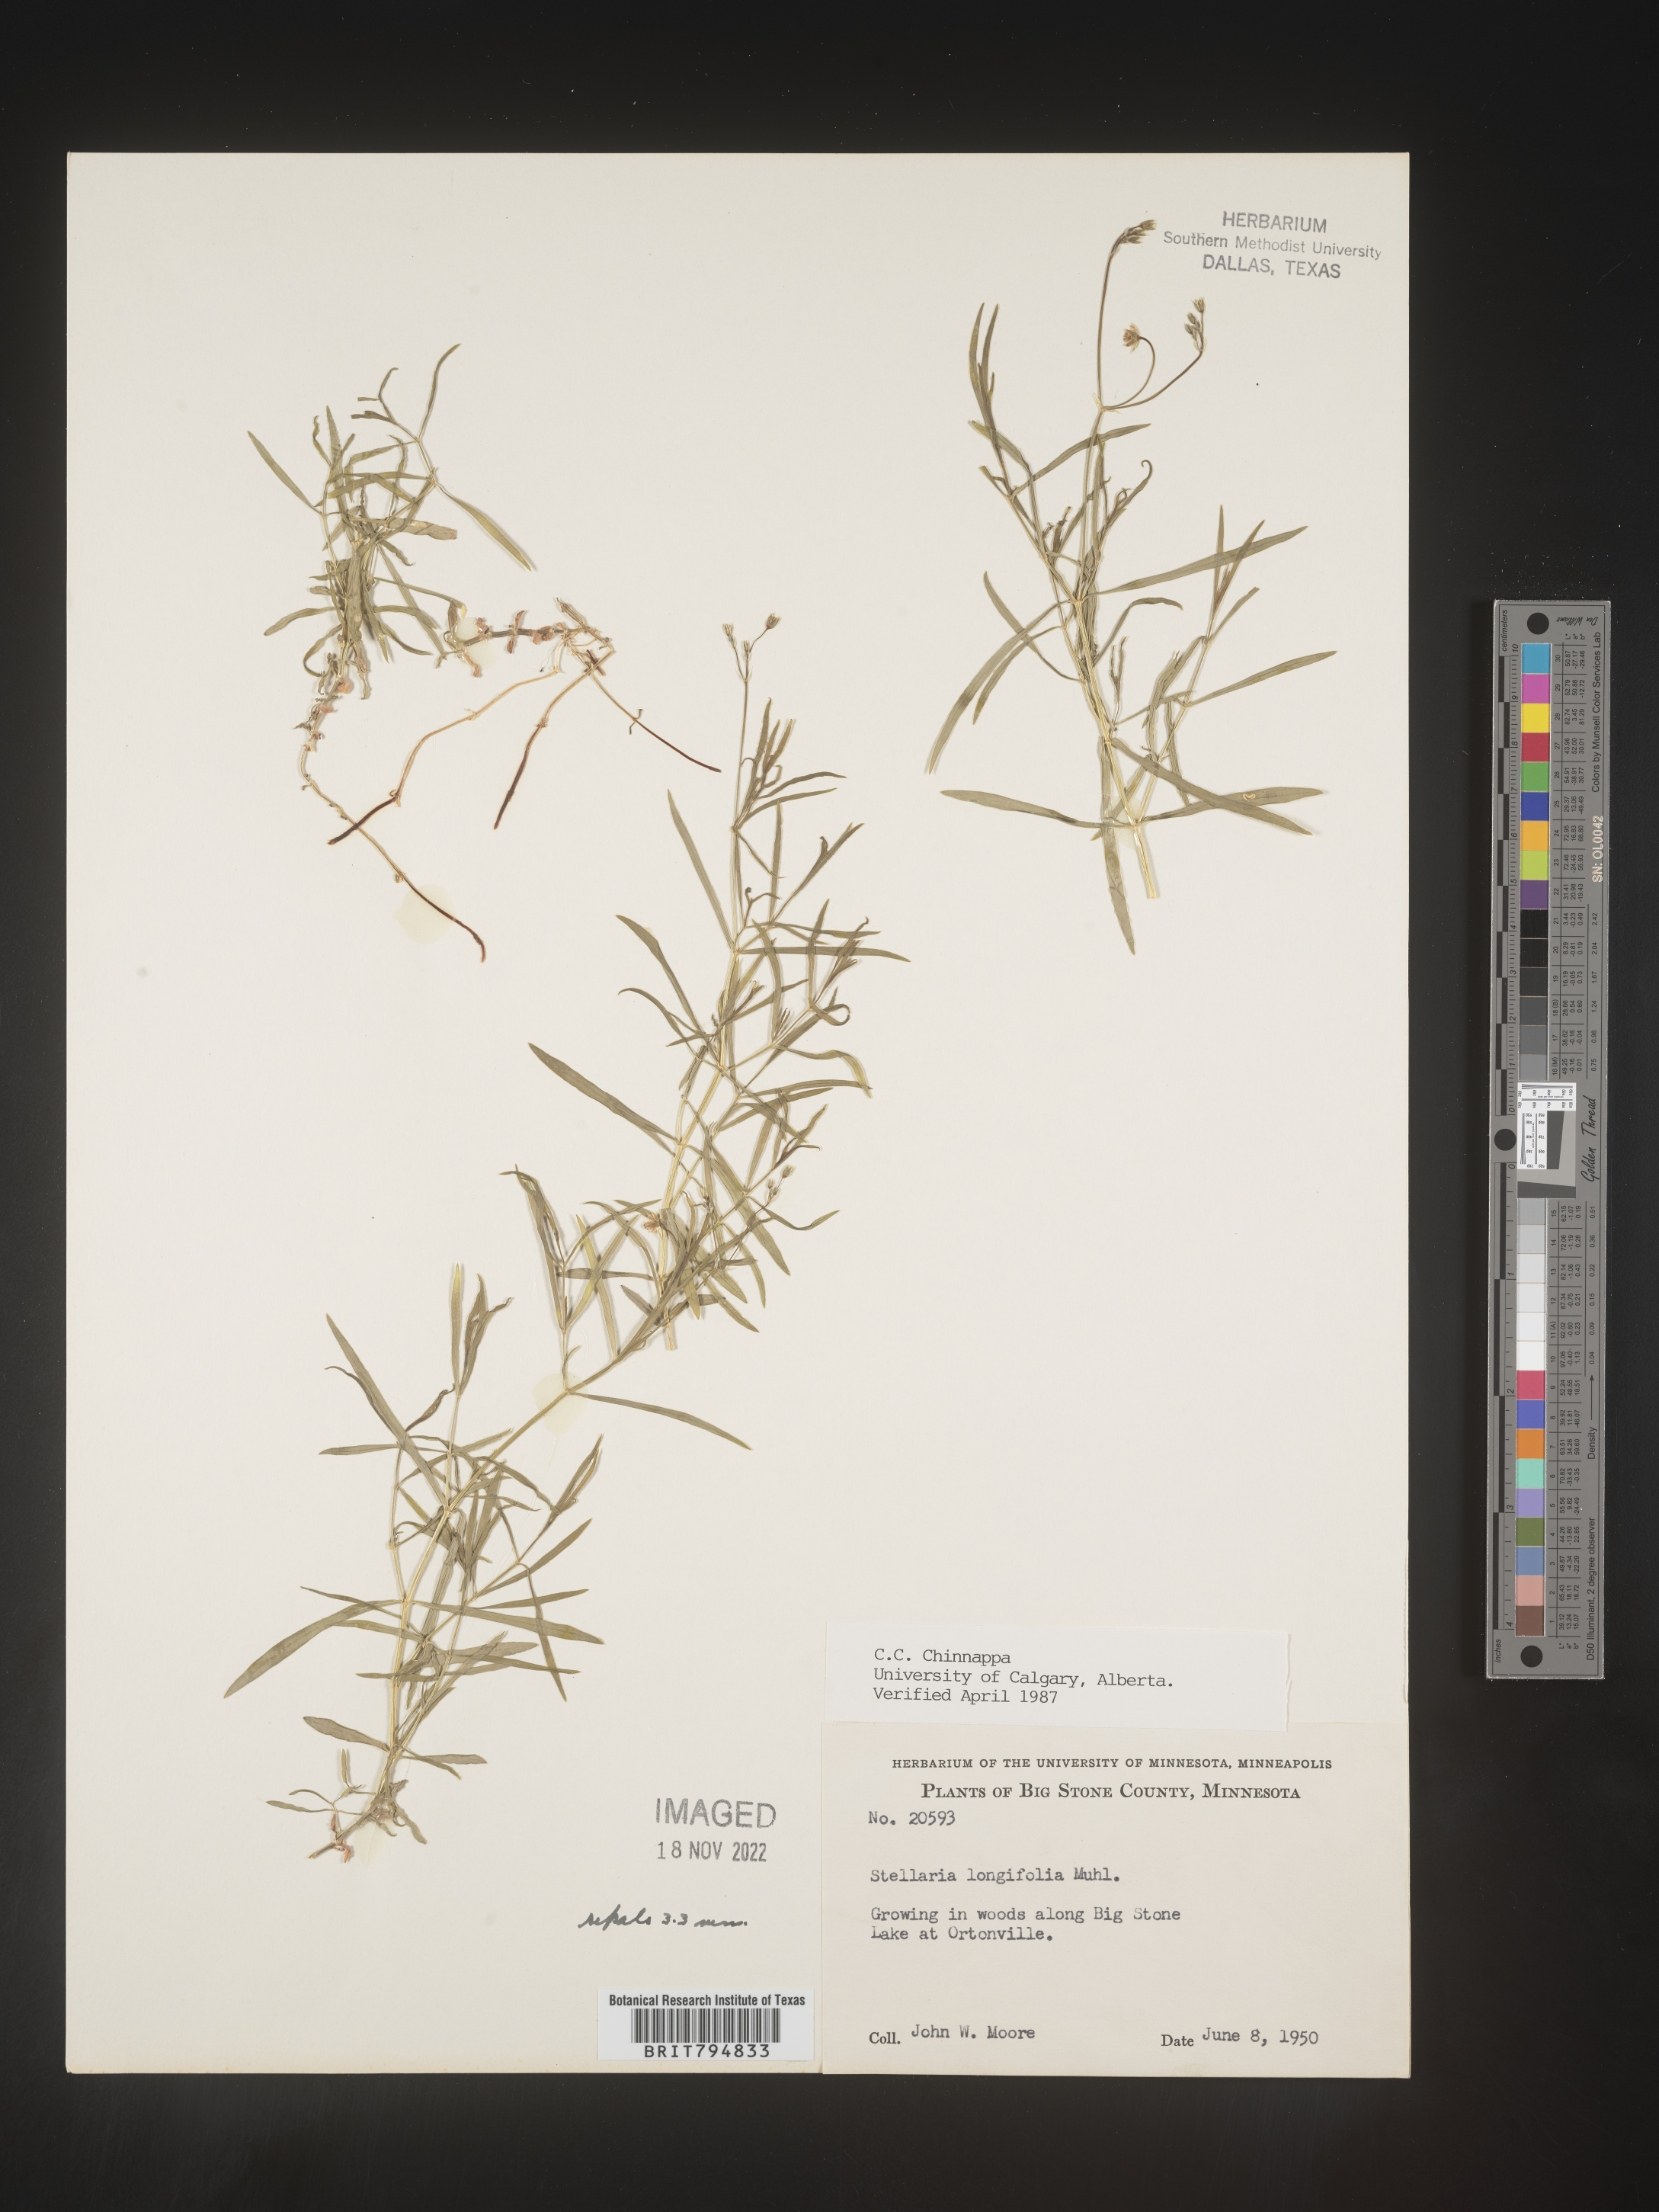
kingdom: Plantae
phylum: Tracheophyta
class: Magnoliopsida
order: Caryophyllales
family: Caryophyllaceae
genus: Stellaria
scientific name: Stellaria longifolia
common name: Long-leaved chickweed
